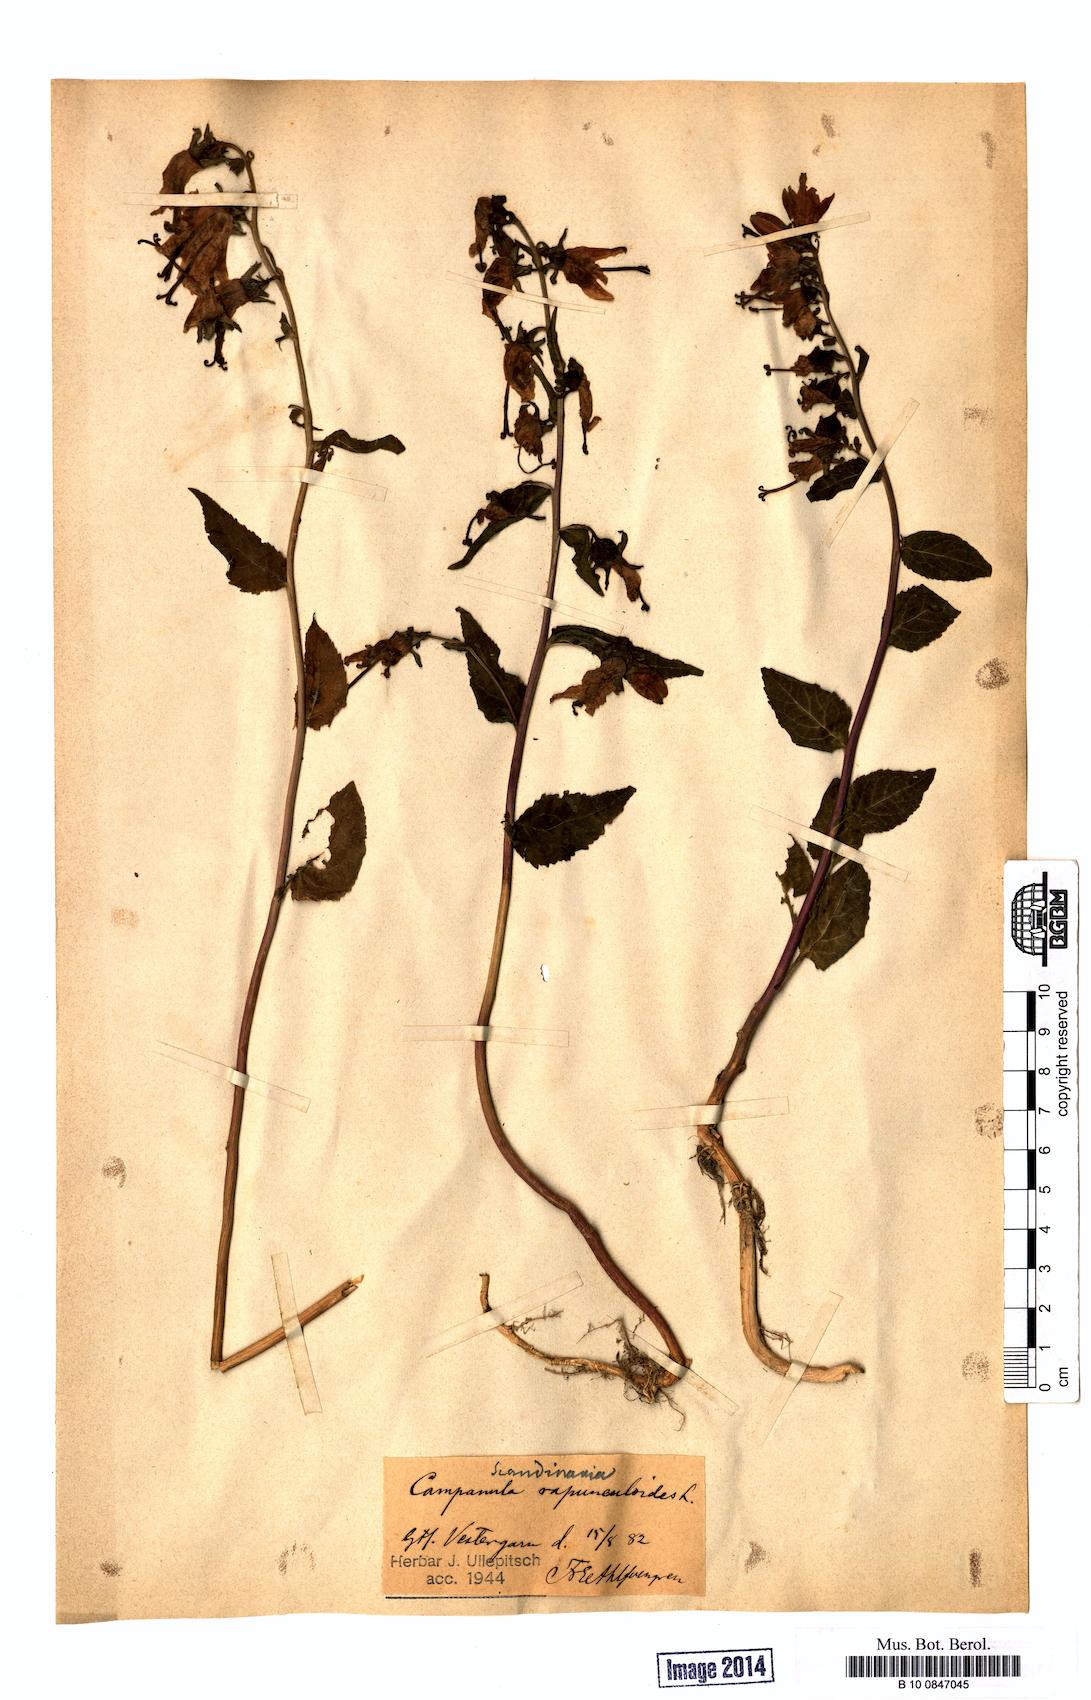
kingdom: Plantae
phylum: Tracheophyta
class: Magnoliopsida
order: Asterales
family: Campanulaceae
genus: Campanula
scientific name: Campanula rapunculoides
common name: Creeping bellflower
